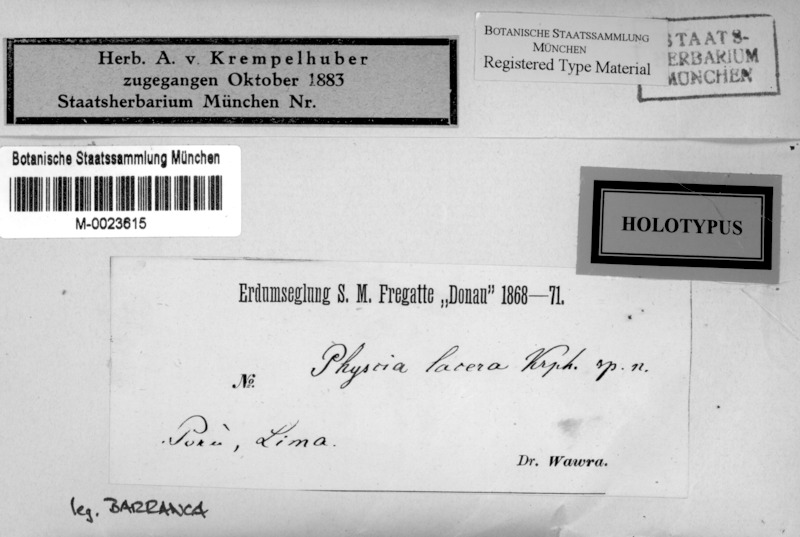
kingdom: Fungi
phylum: Ascomycota
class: Lecanoromycetes
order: Caliciales
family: Physciaceae
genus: Physcia
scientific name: Physcia
